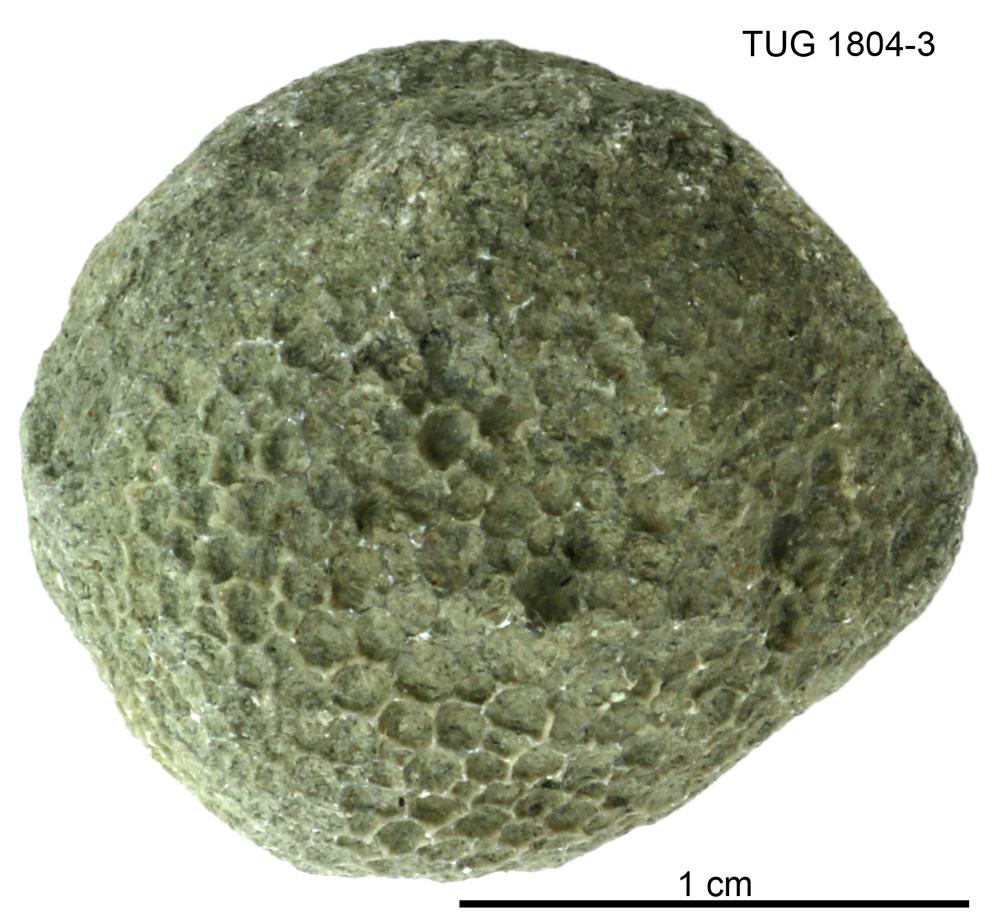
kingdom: Animalia
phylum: Cnidaria
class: Anthozoa
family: Favositidae
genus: Favosites
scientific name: Favosites
